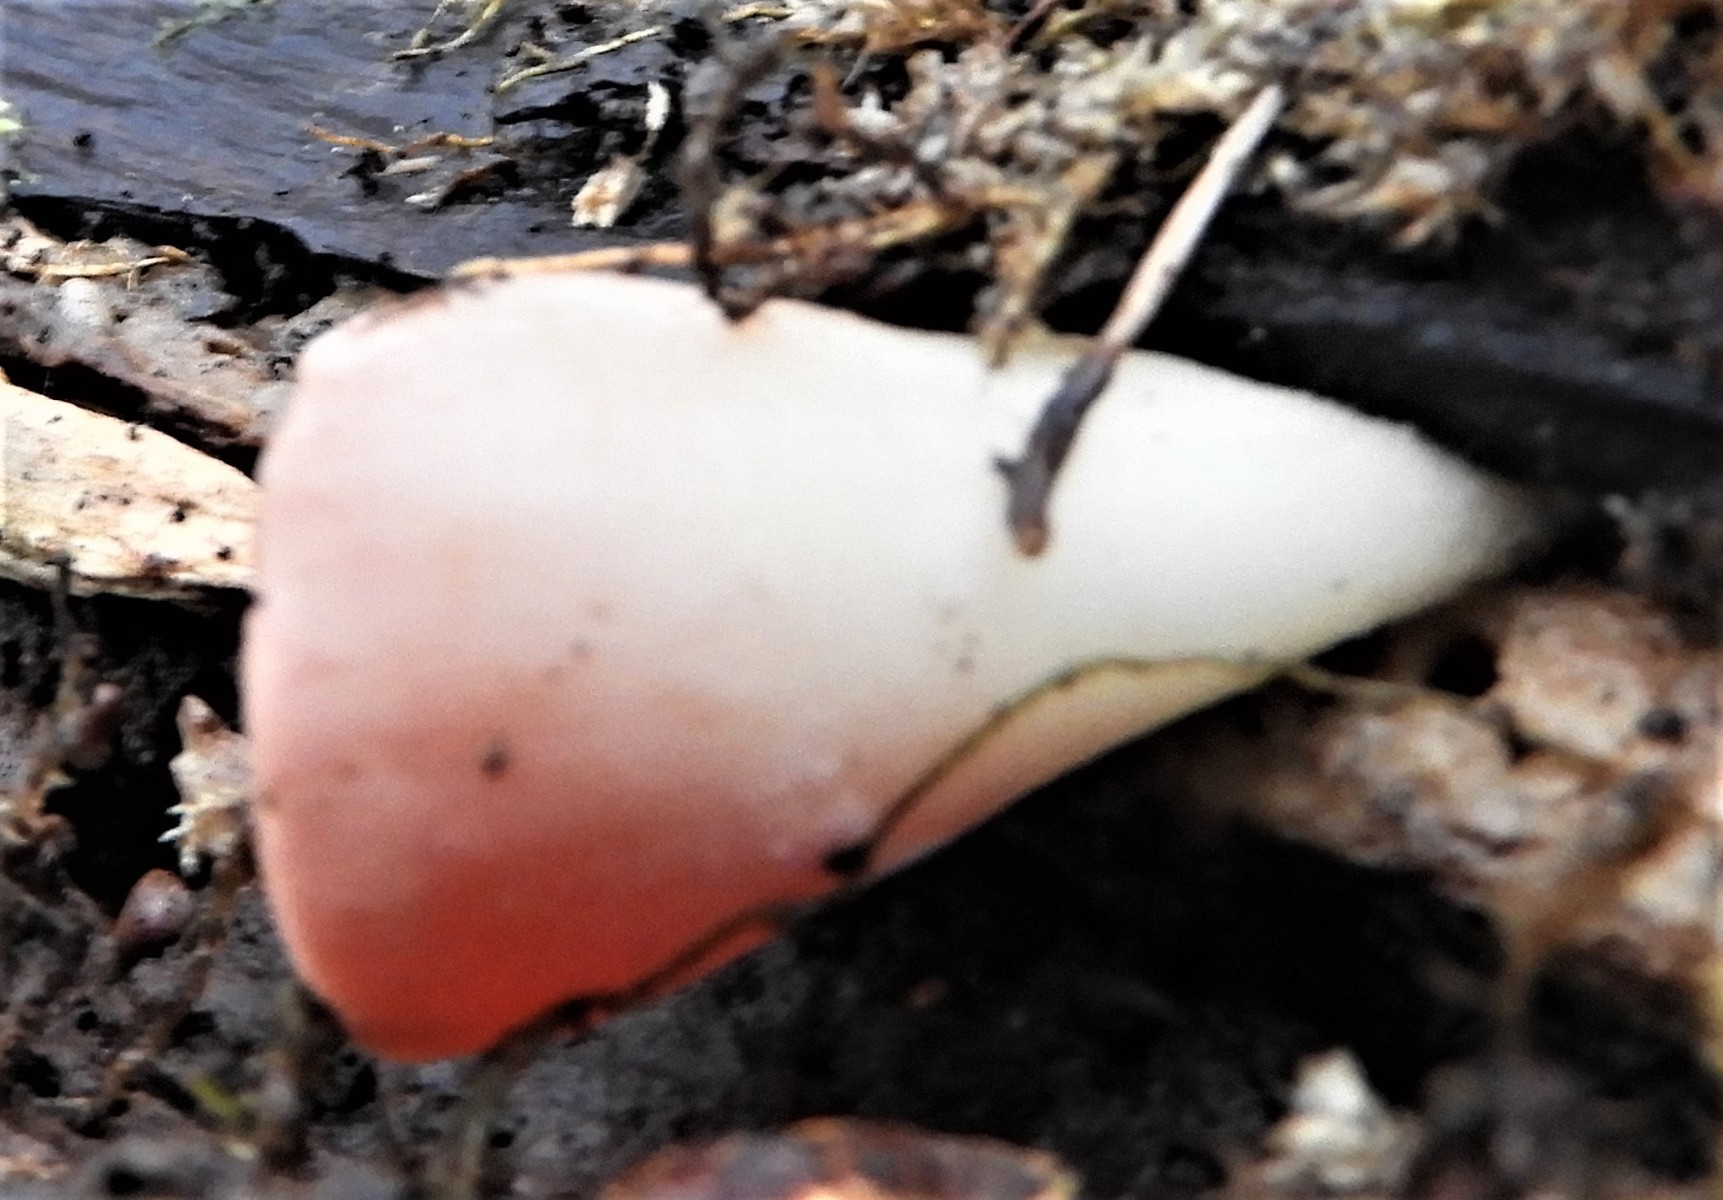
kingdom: Fungi
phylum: Ascomycota
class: Pezizomycetes
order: Pezizales
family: Sarcoscyphaceae
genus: Sarcoscypha
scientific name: Sarcoscypha austriaca
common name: krølhåret pragtbæger
